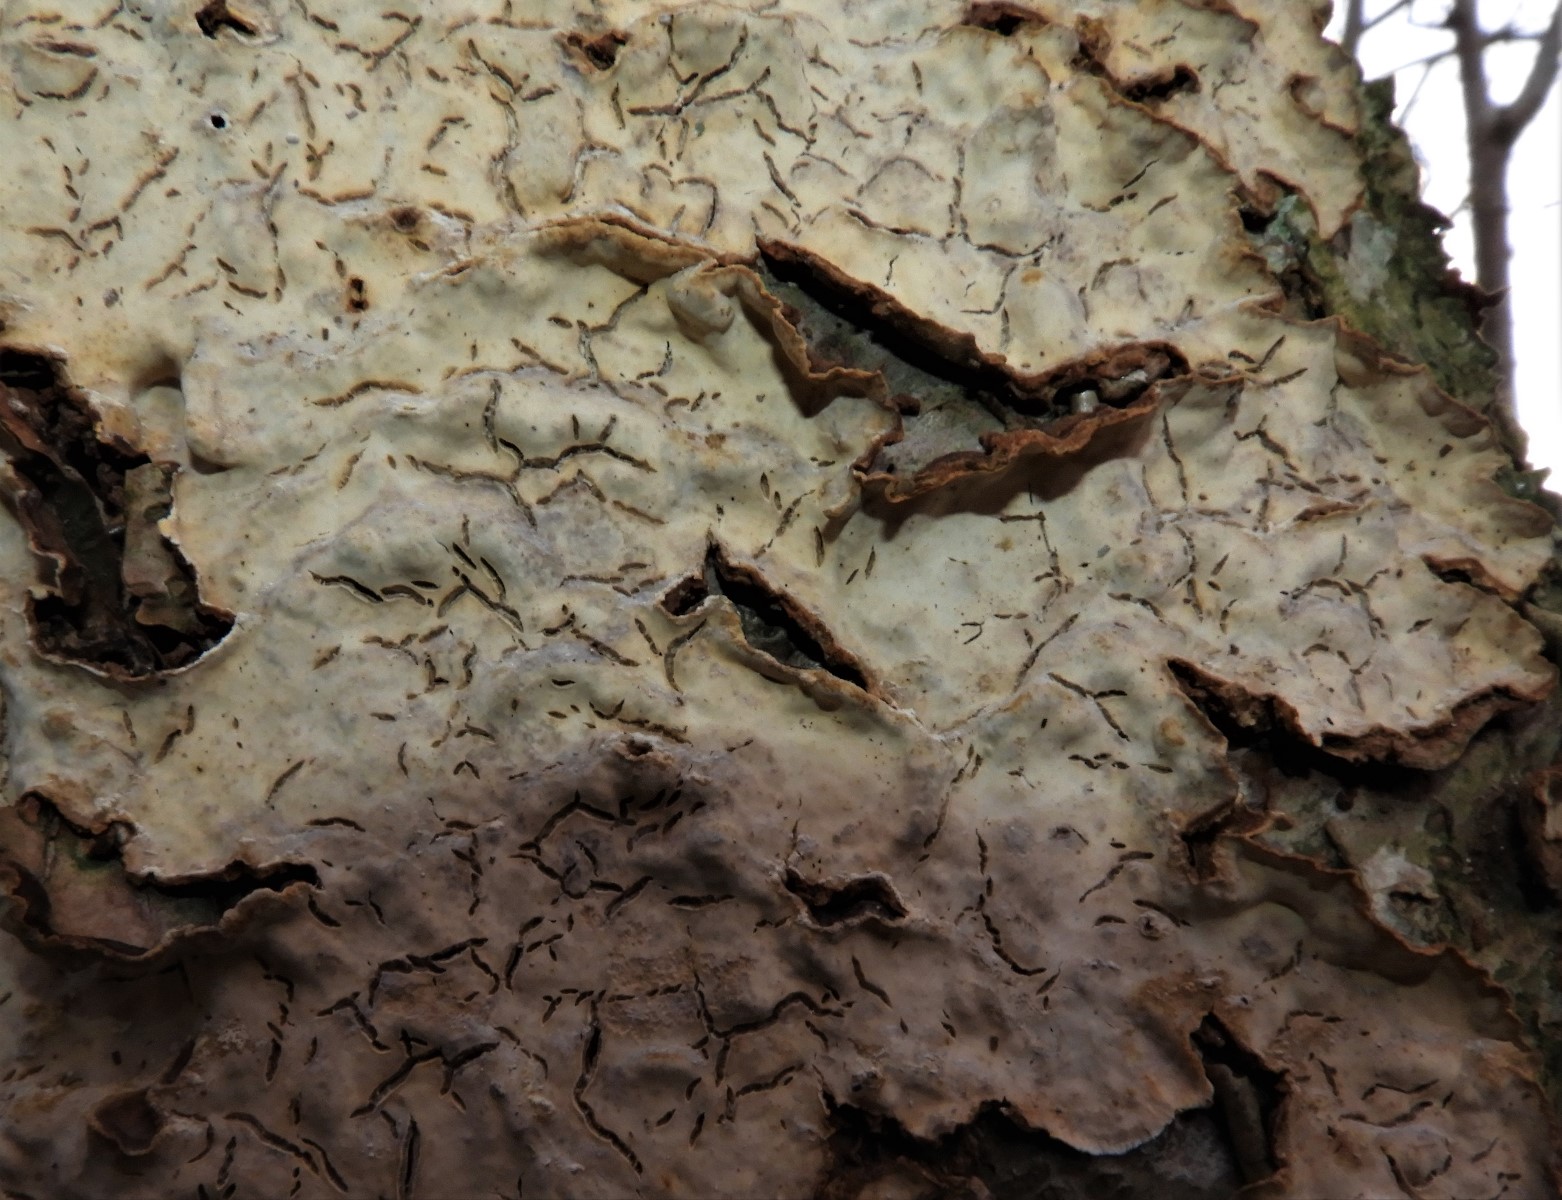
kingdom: Fungi
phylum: Basidiomycota
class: Agaricomycetes
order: Russulales
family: Stereaceae
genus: Stereum
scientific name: Stereum rugosum
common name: rynket lædersvamp
